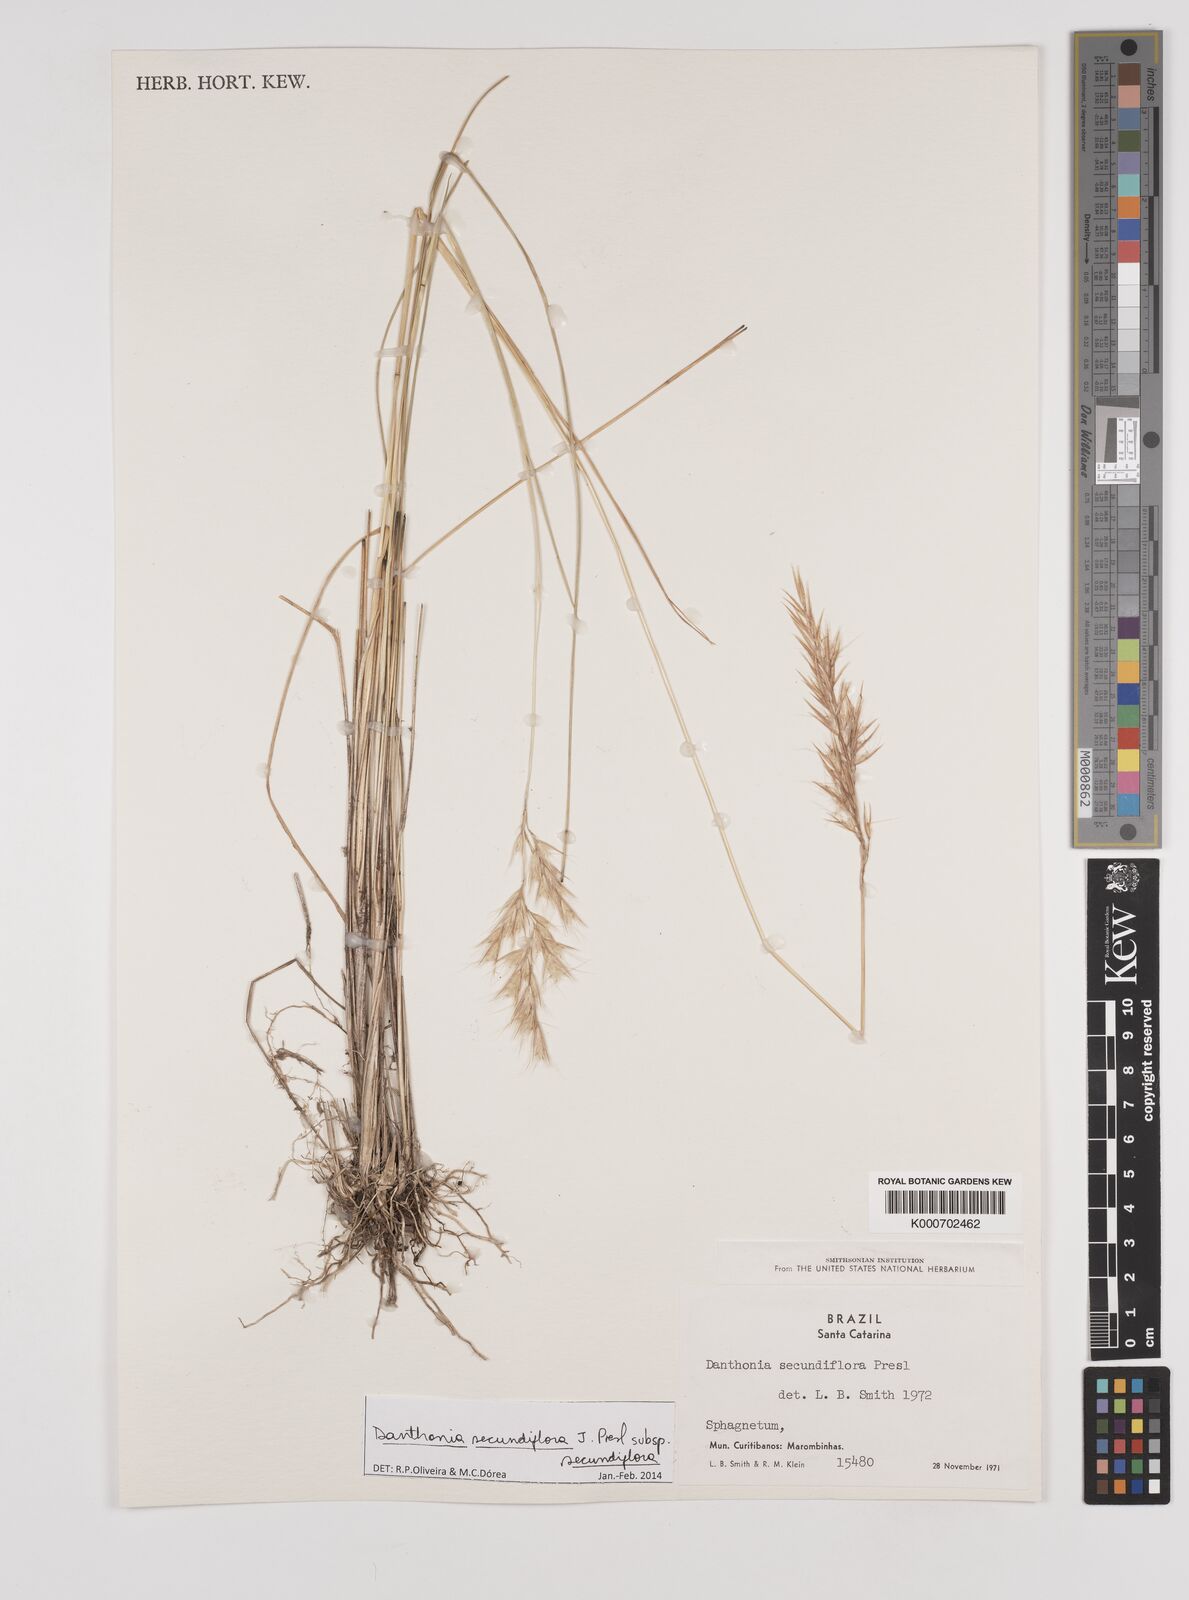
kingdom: Plantae
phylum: Tracheophyta
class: Liliopsida
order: Poales
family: Poaceae
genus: Danthonia
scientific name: Danthonia secundiflora
